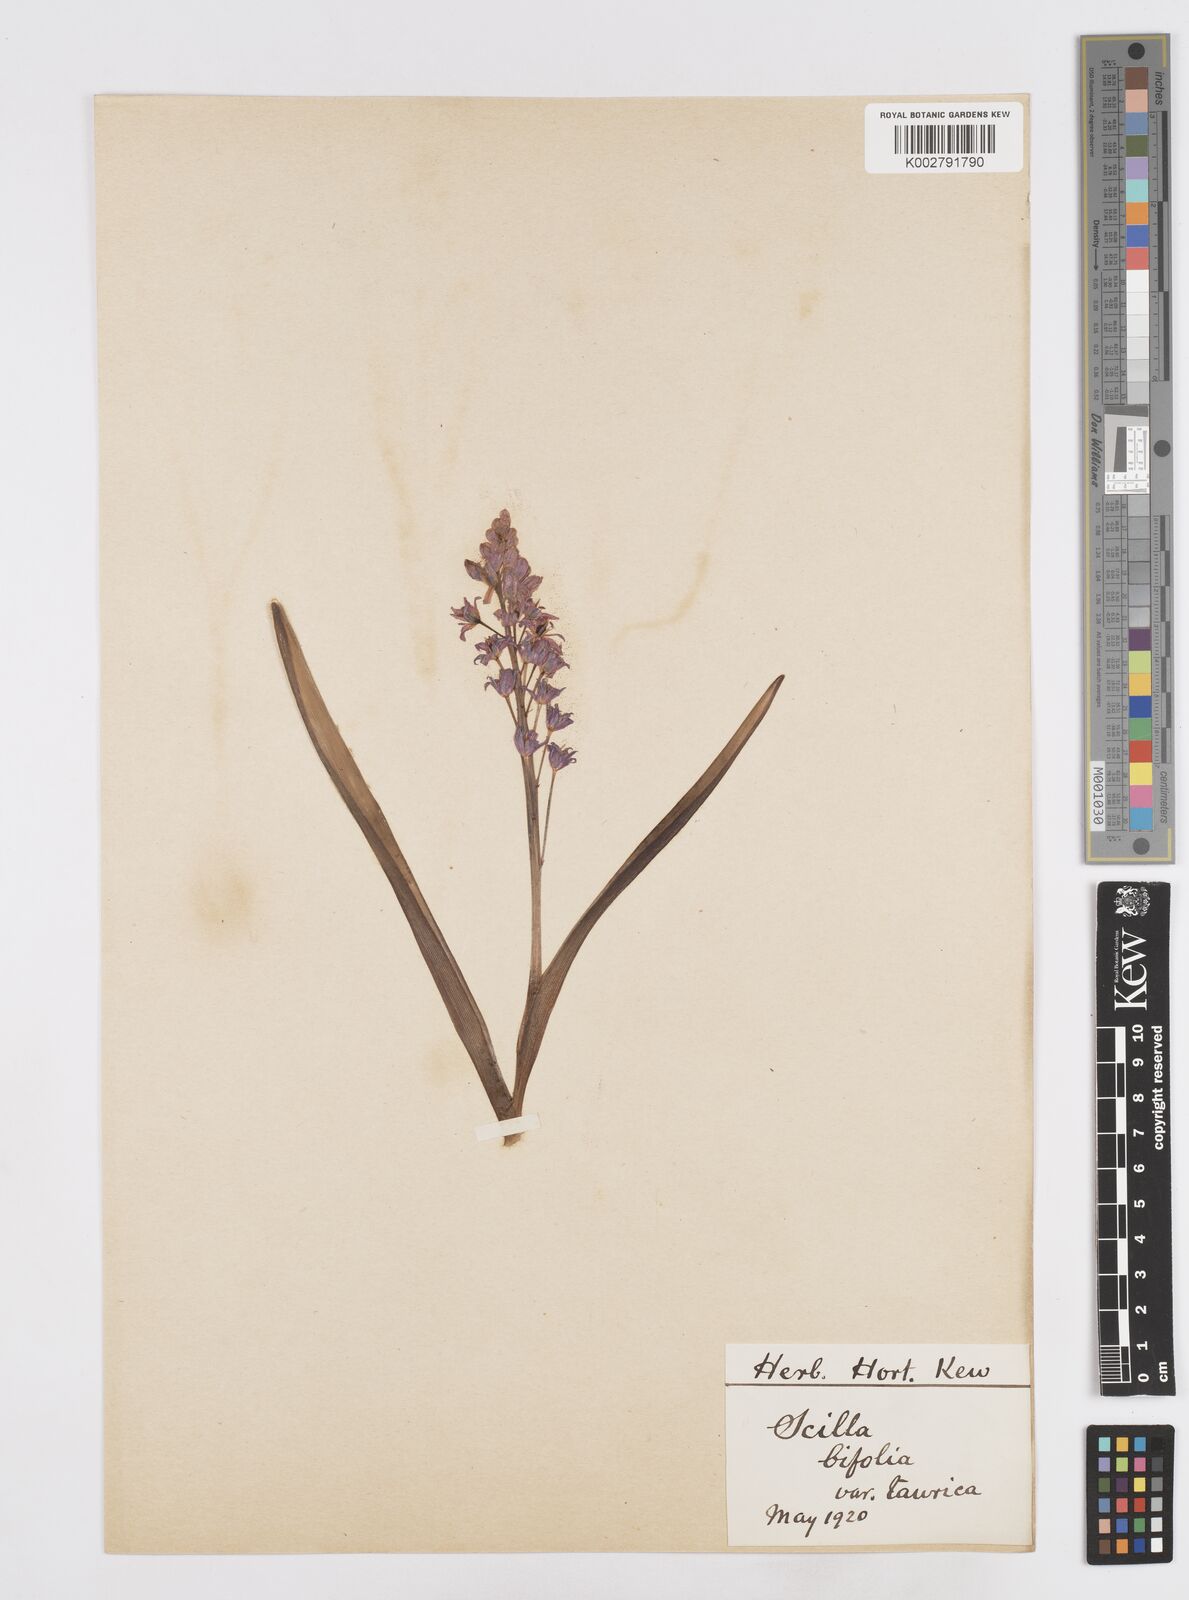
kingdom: Plantae
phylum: Tracheophyta
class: Liliopsida
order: Asparagales
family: Asparagaceae
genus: Scilla
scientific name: Scilla bifolia
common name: Alpine squill
